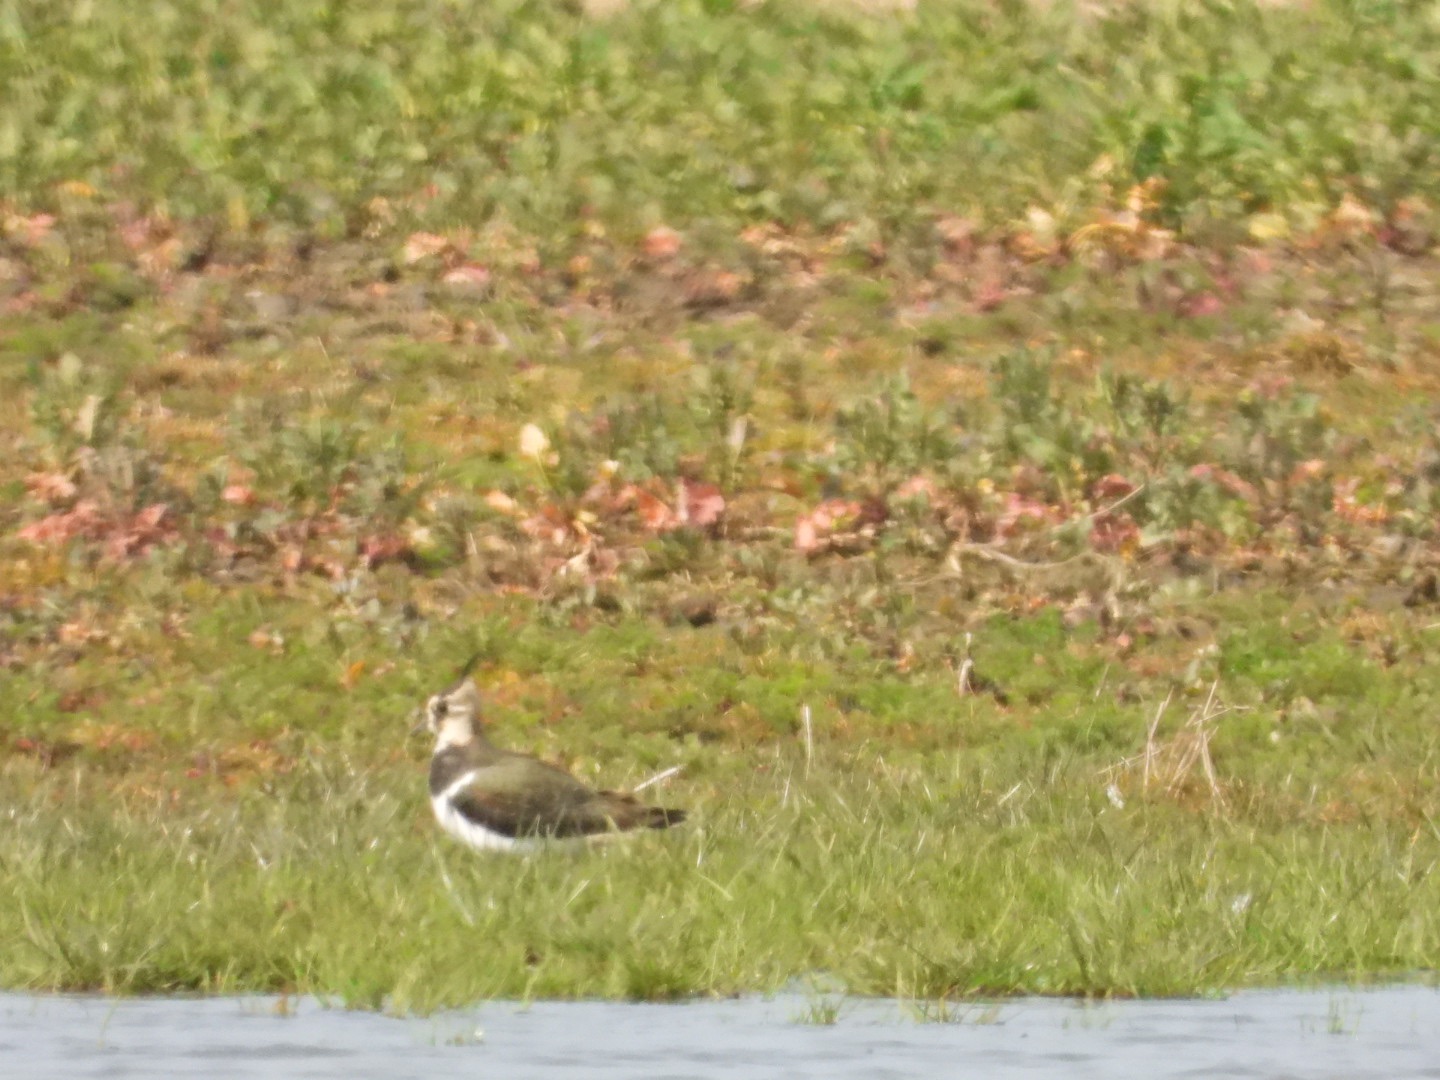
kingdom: Animalia
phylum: Chordata
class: Aves
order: Charadriiformes
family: Charadriidae
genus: Vanellus
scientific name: Vanellus vanellus
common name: Vibe
